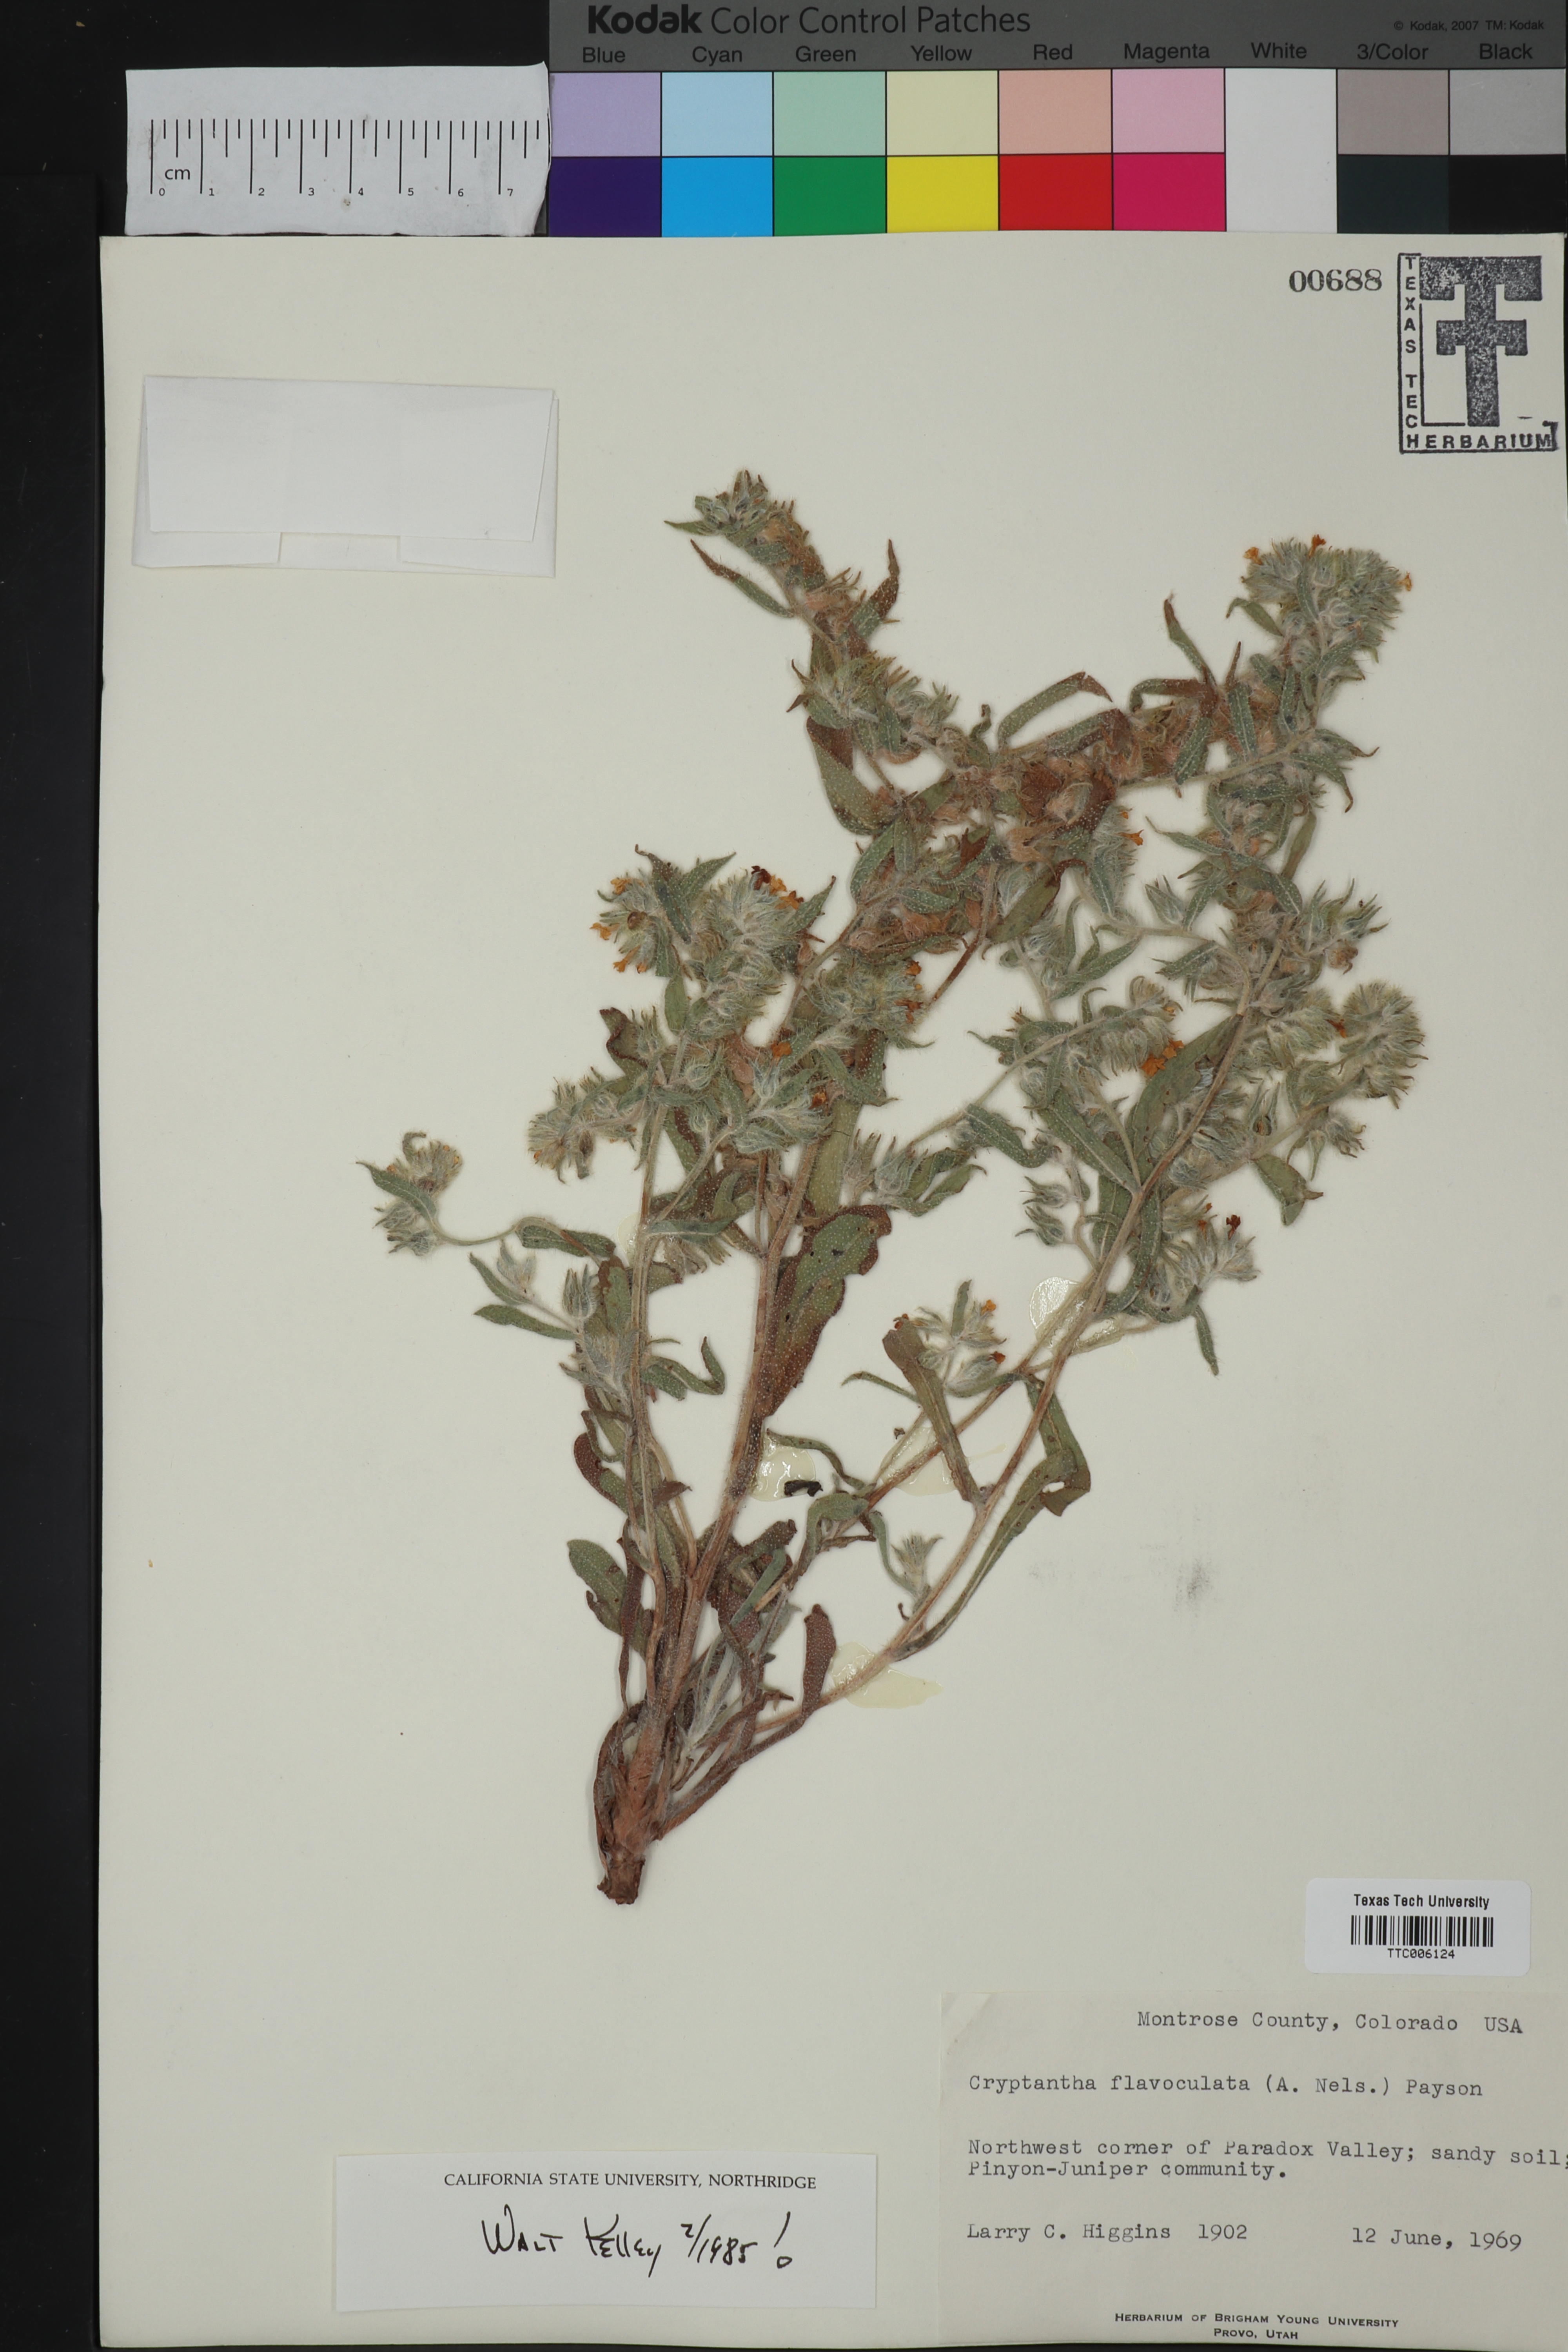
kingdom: Plantae
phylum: Tracheophyta
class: Magnoliopsida
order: Boraginales
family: Boraginaceae
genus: Oreocarya
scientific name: Oreocarya flavoculata
